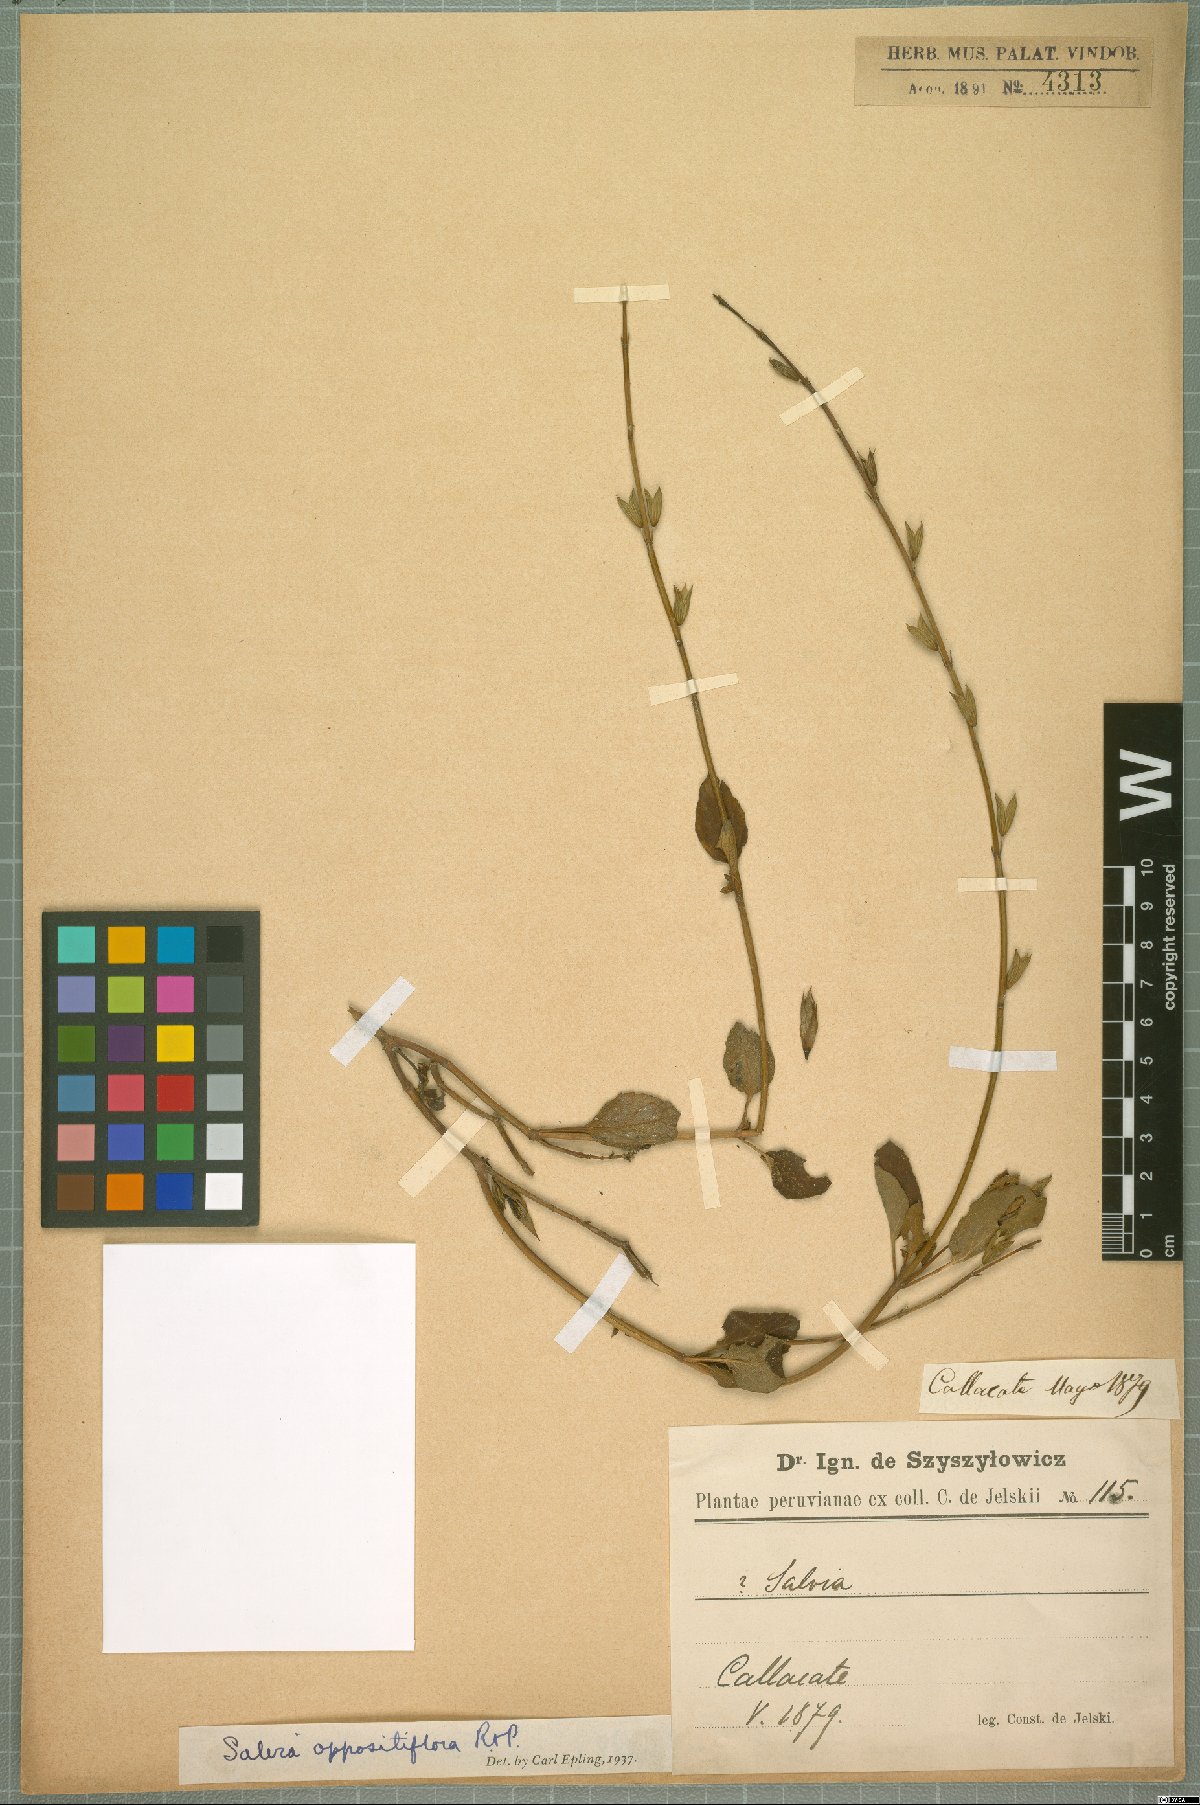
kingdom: Plantae
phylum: Tracheophyta
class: Magnoliopsida
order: Lamiales
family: Lamiaceae
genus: Salvia
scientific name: Salvia oppositiflora
